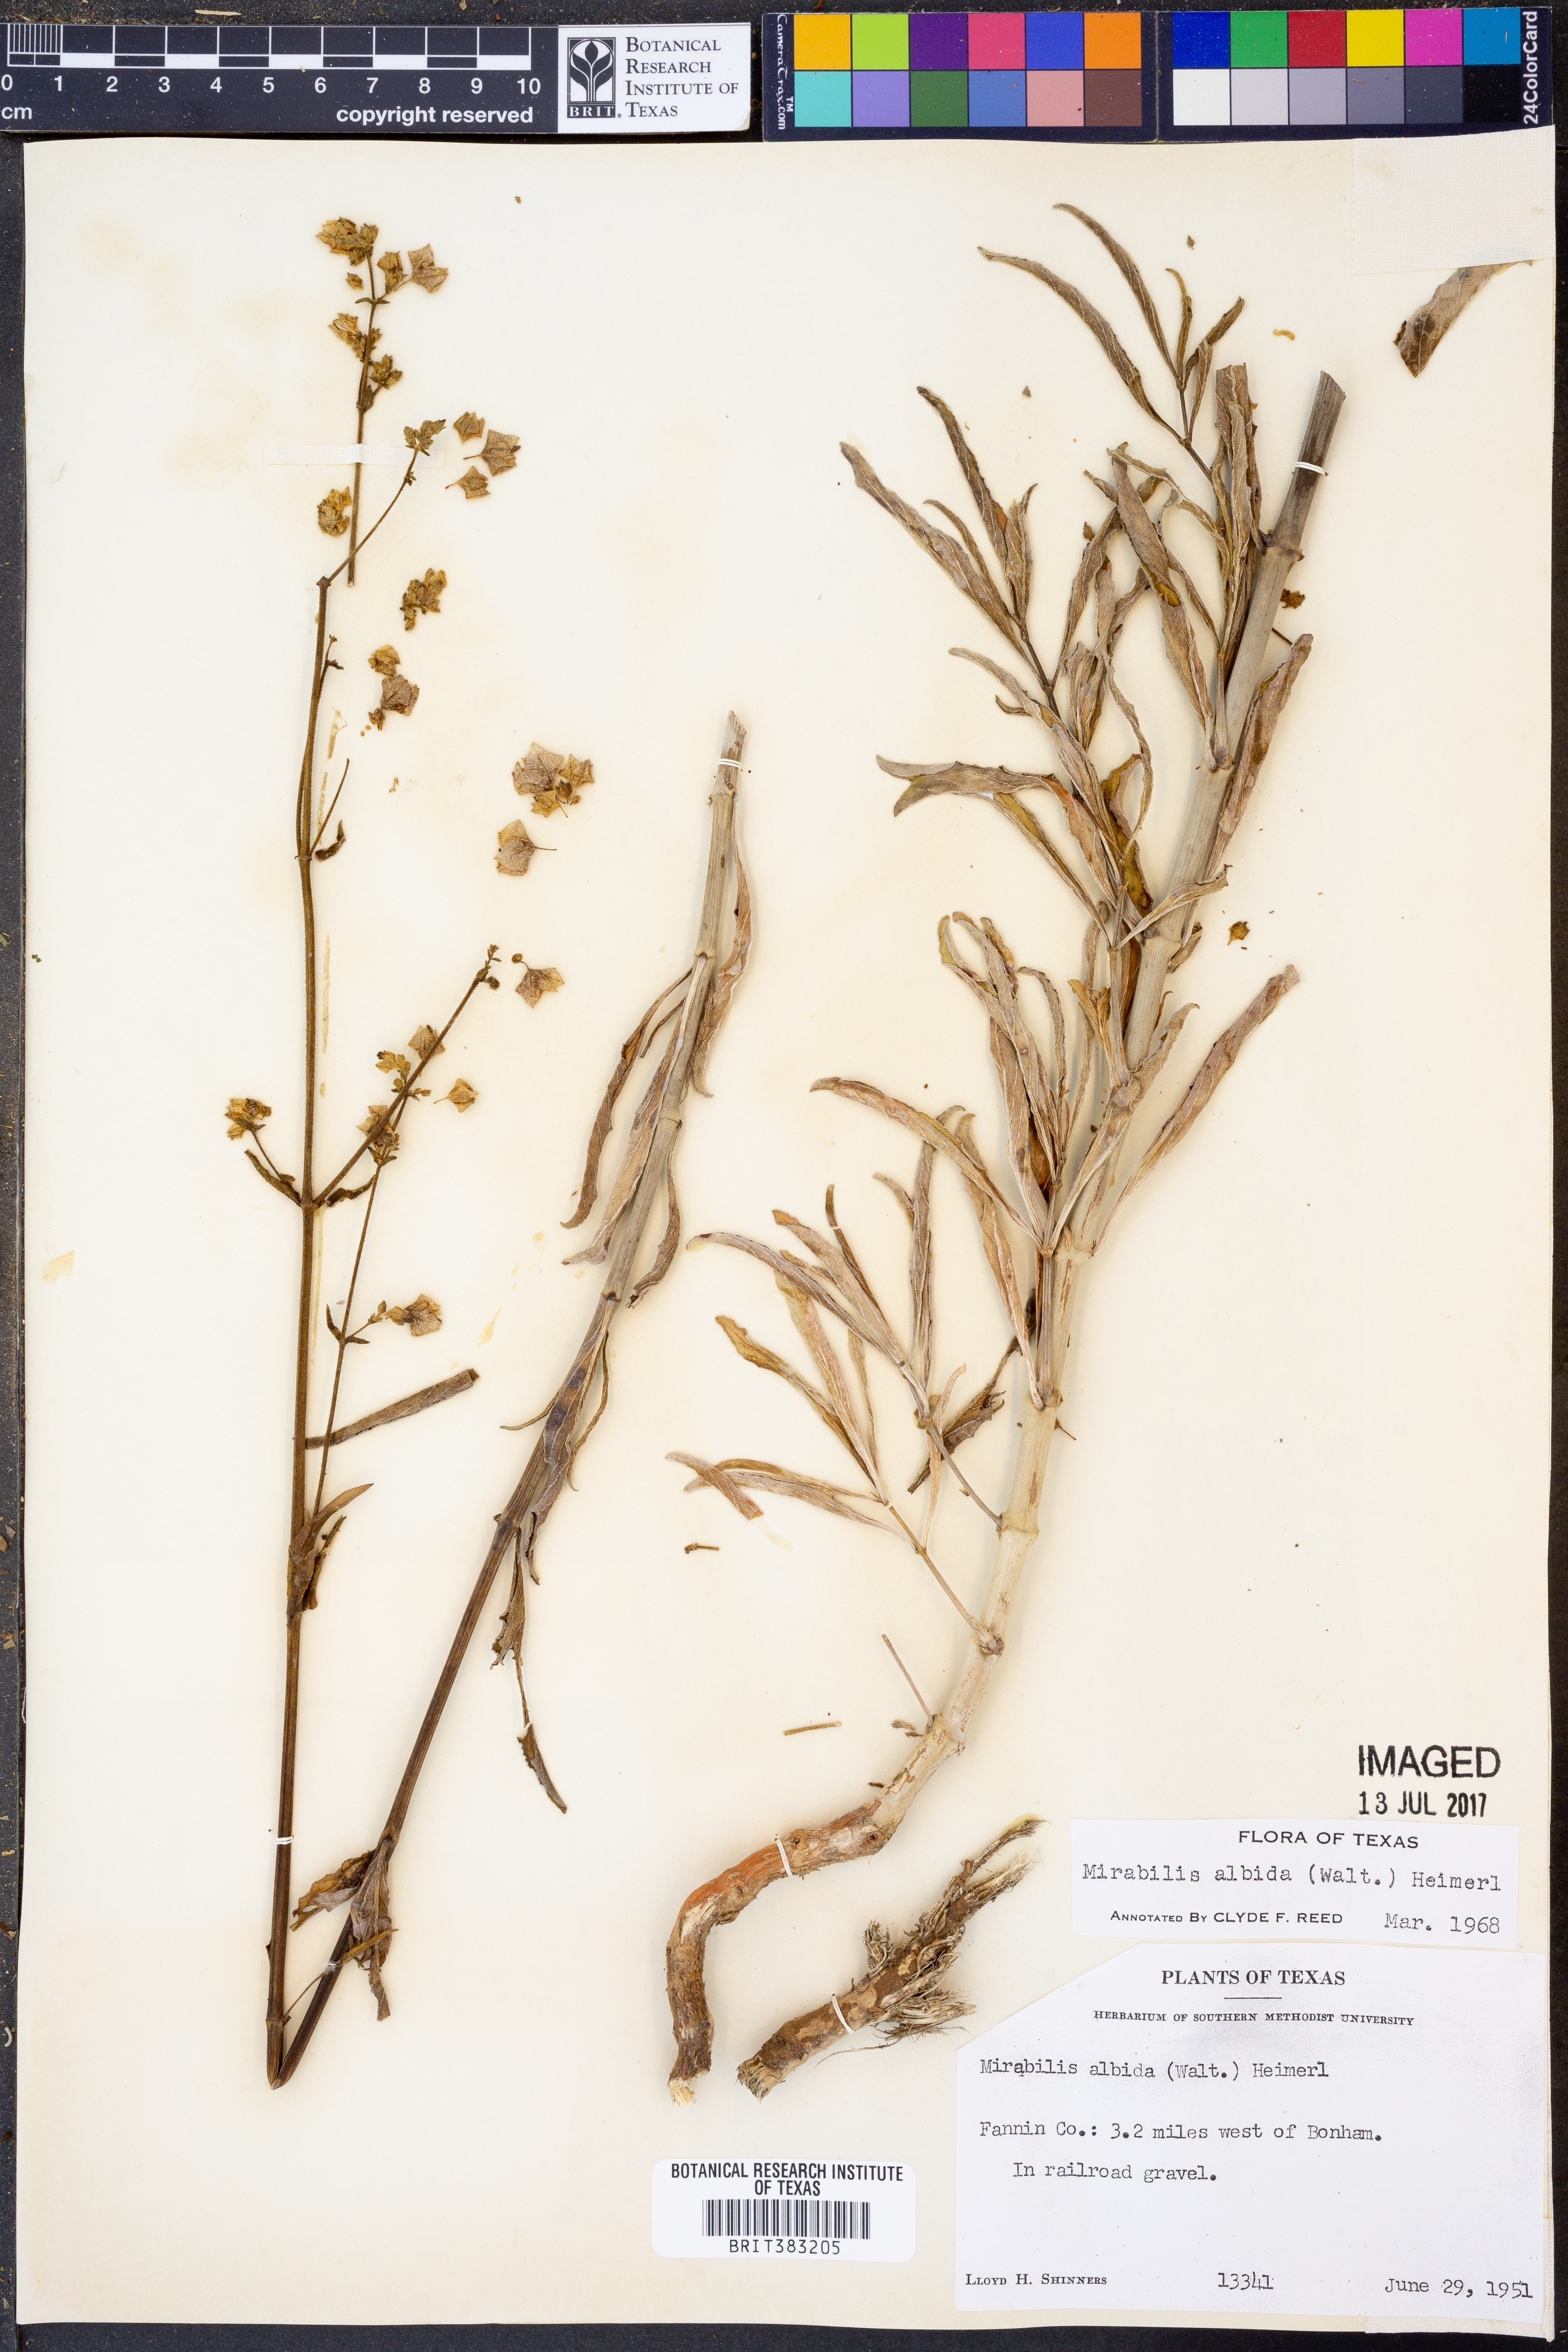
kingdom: Plantae
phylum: Tracheophyta
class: Magnoliopsida
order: Caryophyllales
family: Nyctaginaceae
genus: Mirabilis
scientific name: Mirabilis albida
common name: Hairy four-o'clock
